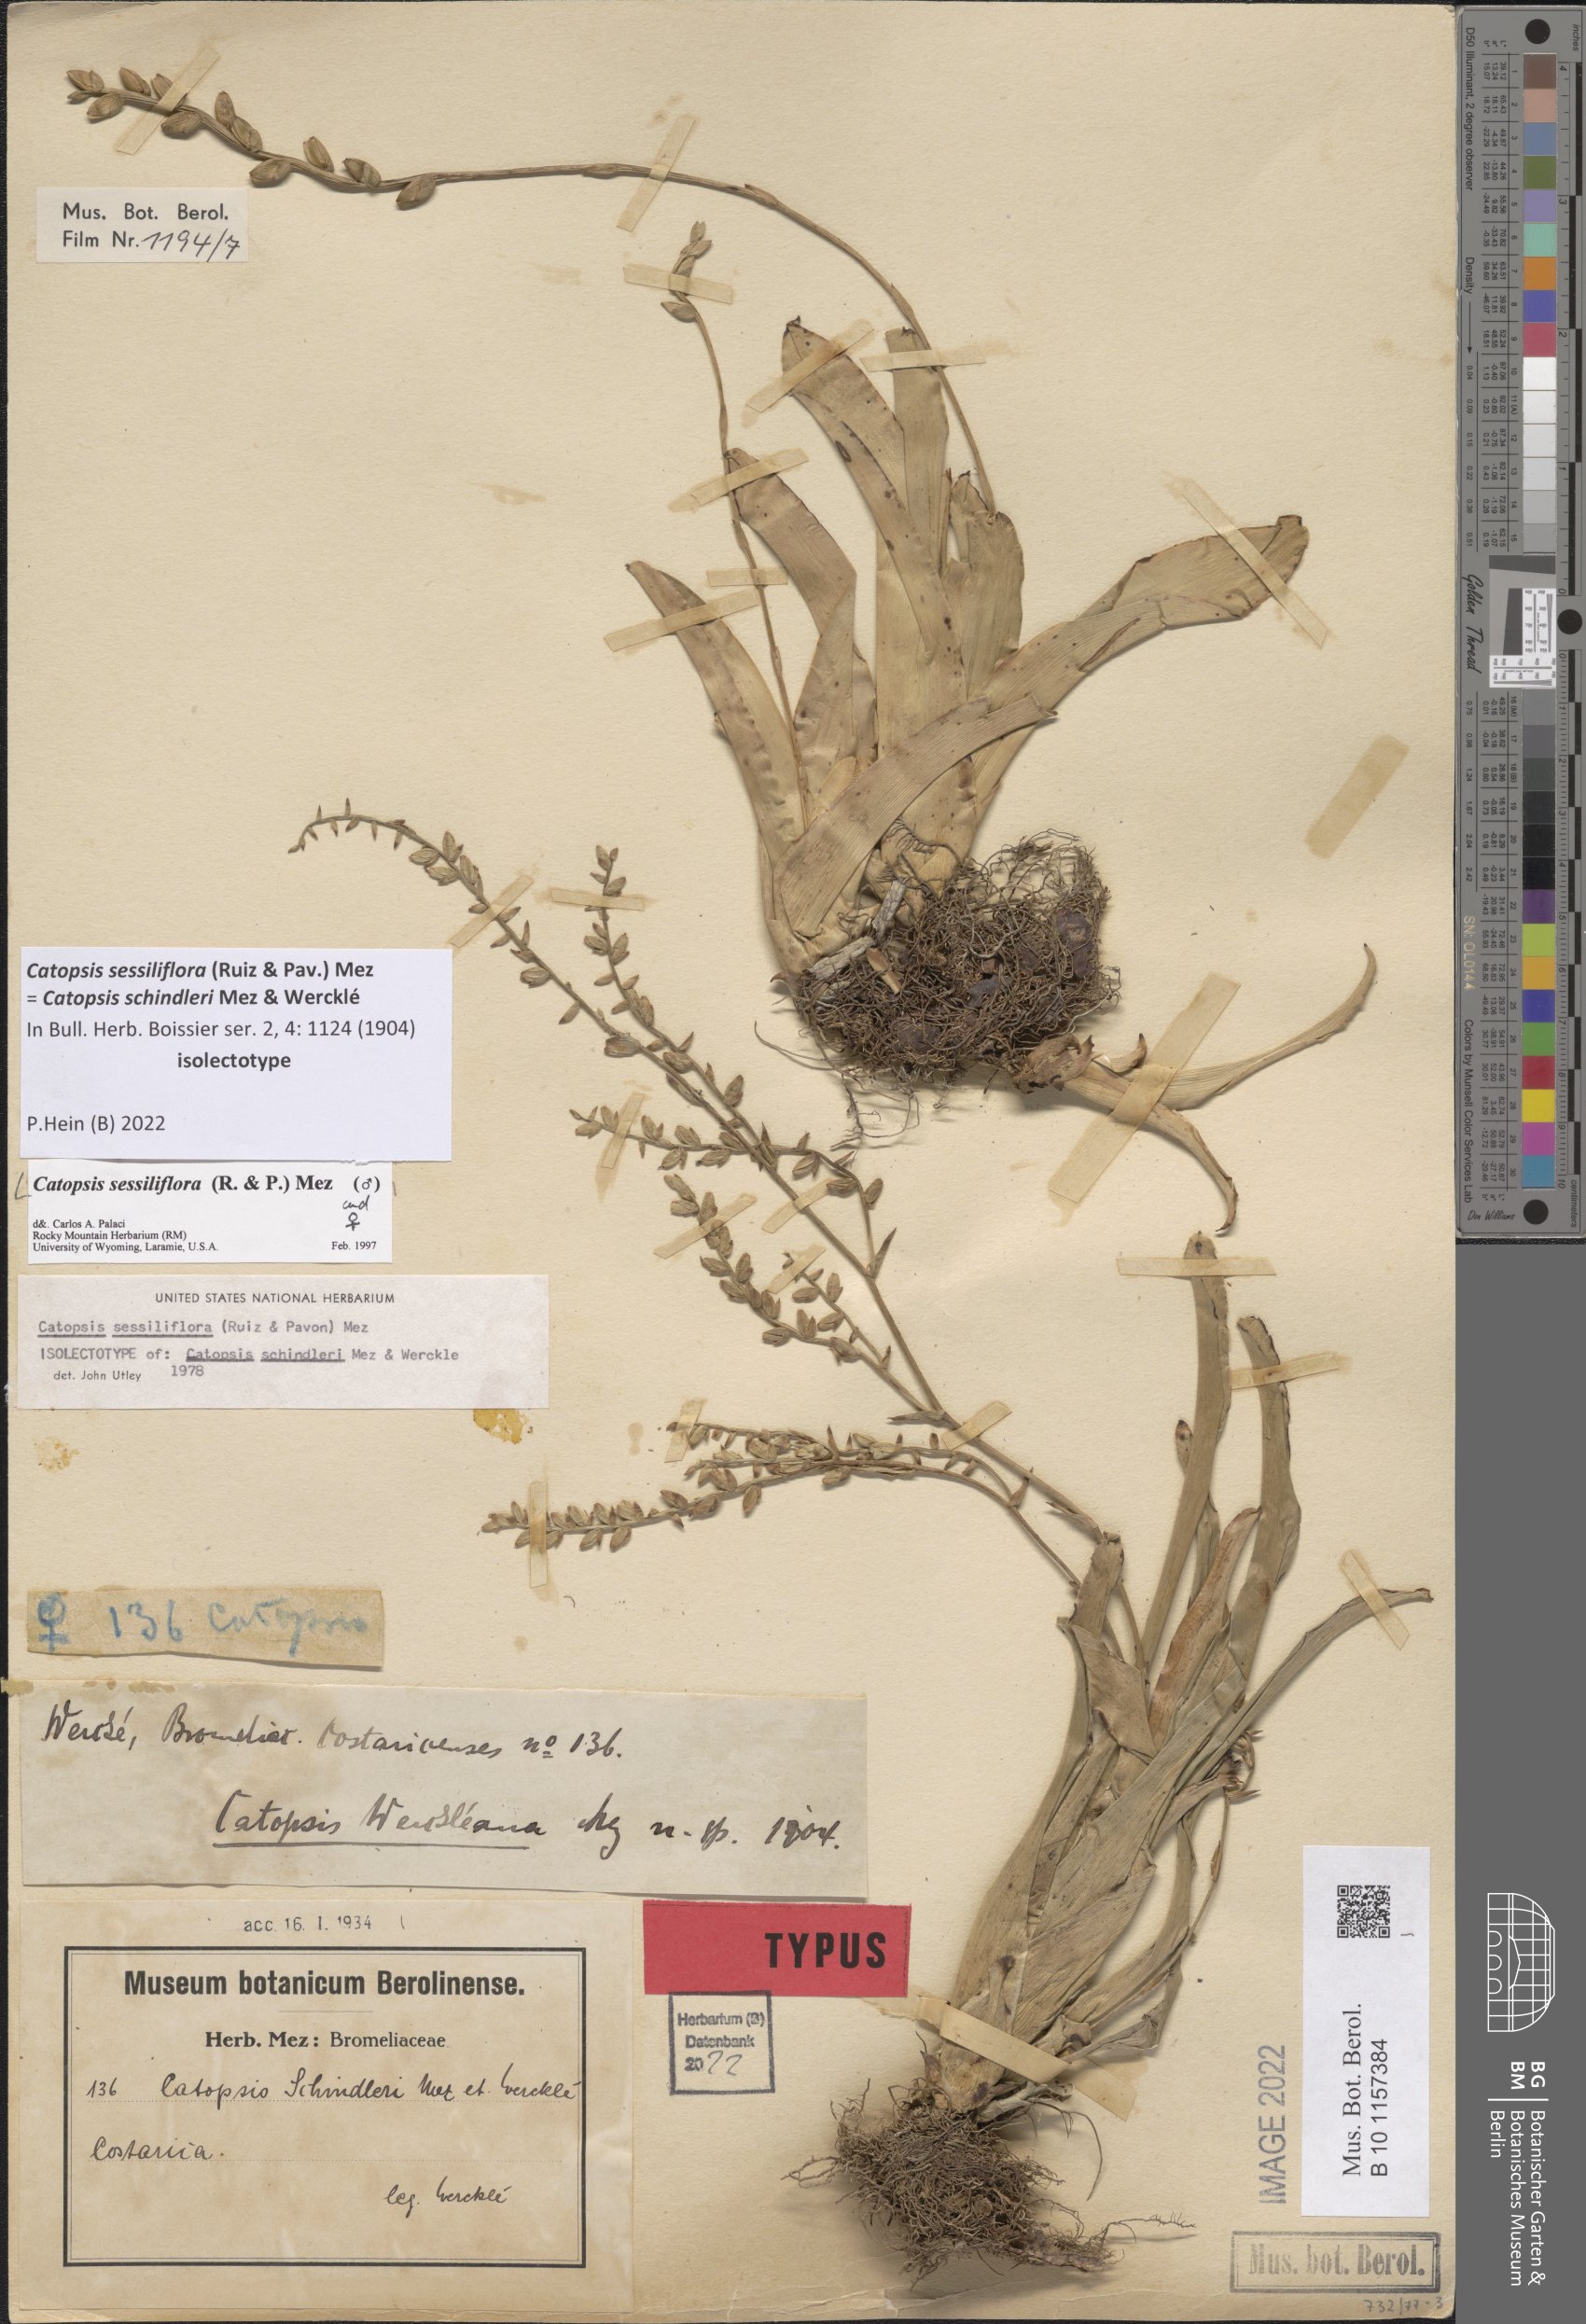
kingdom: Plantae
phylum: Tracheophyta
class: Liliopsida
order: Poales
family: Bromeliaceae
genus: Catopsis
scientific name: Catopsis sessiliflora
